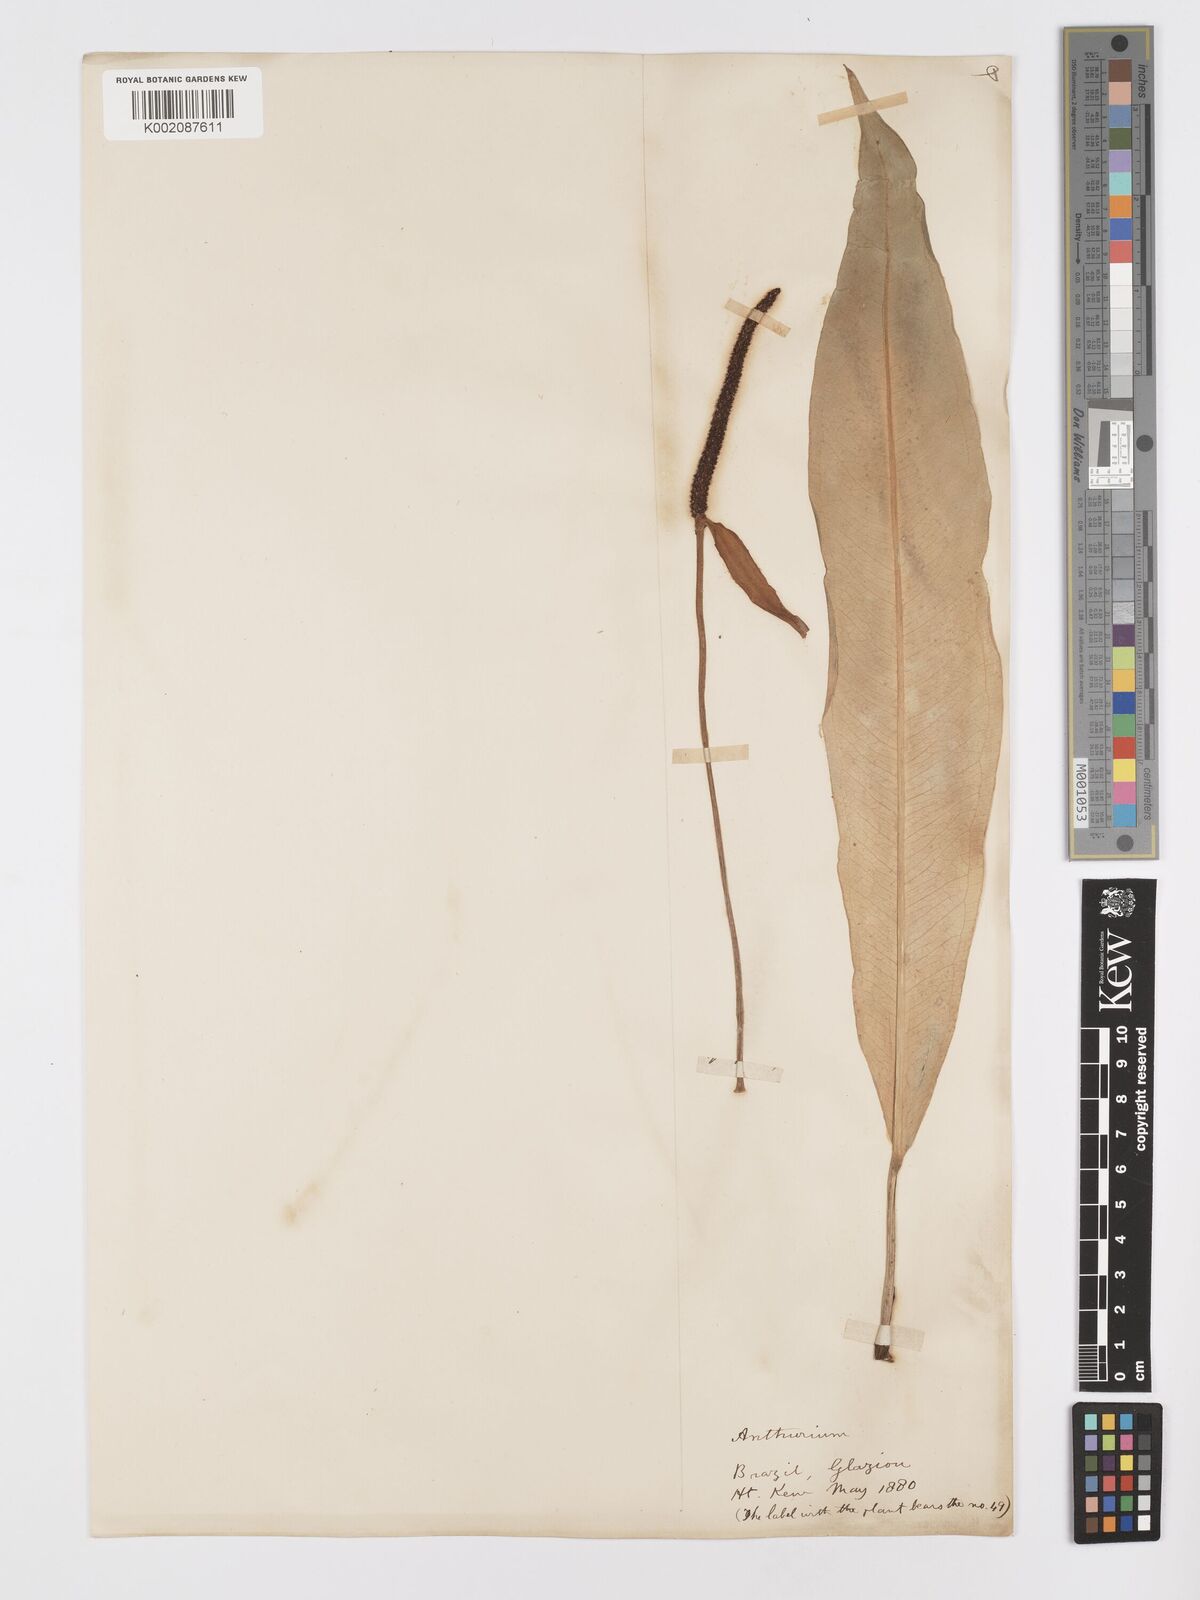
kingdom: Plantae
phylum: Tracheophyta
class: Liliopsida
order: Alismatales
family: Araceae
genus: Anthurium
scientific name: Anthurium harrisii
